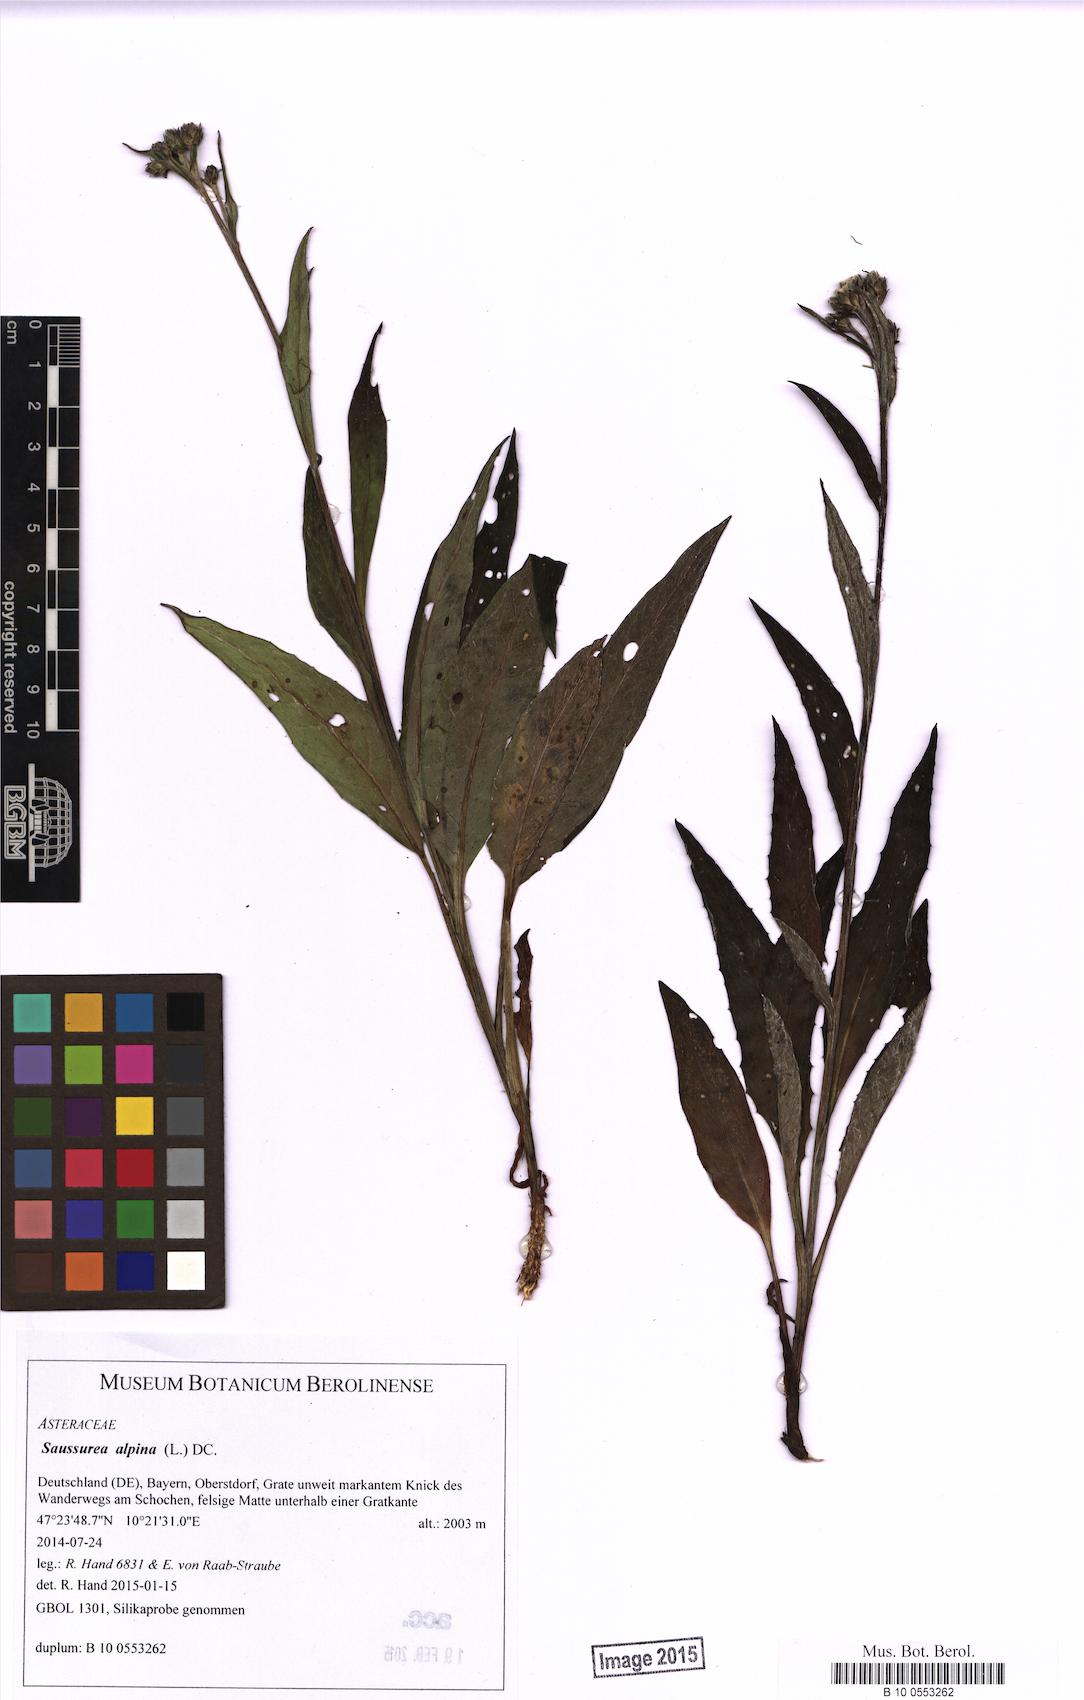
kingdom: Plantae
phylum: Tracheophyta
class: Magnoliopsida
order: Asterales
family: Asteraceae
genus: Saussurea
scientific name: Saussurea alpina
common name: Alpine saw-wort
